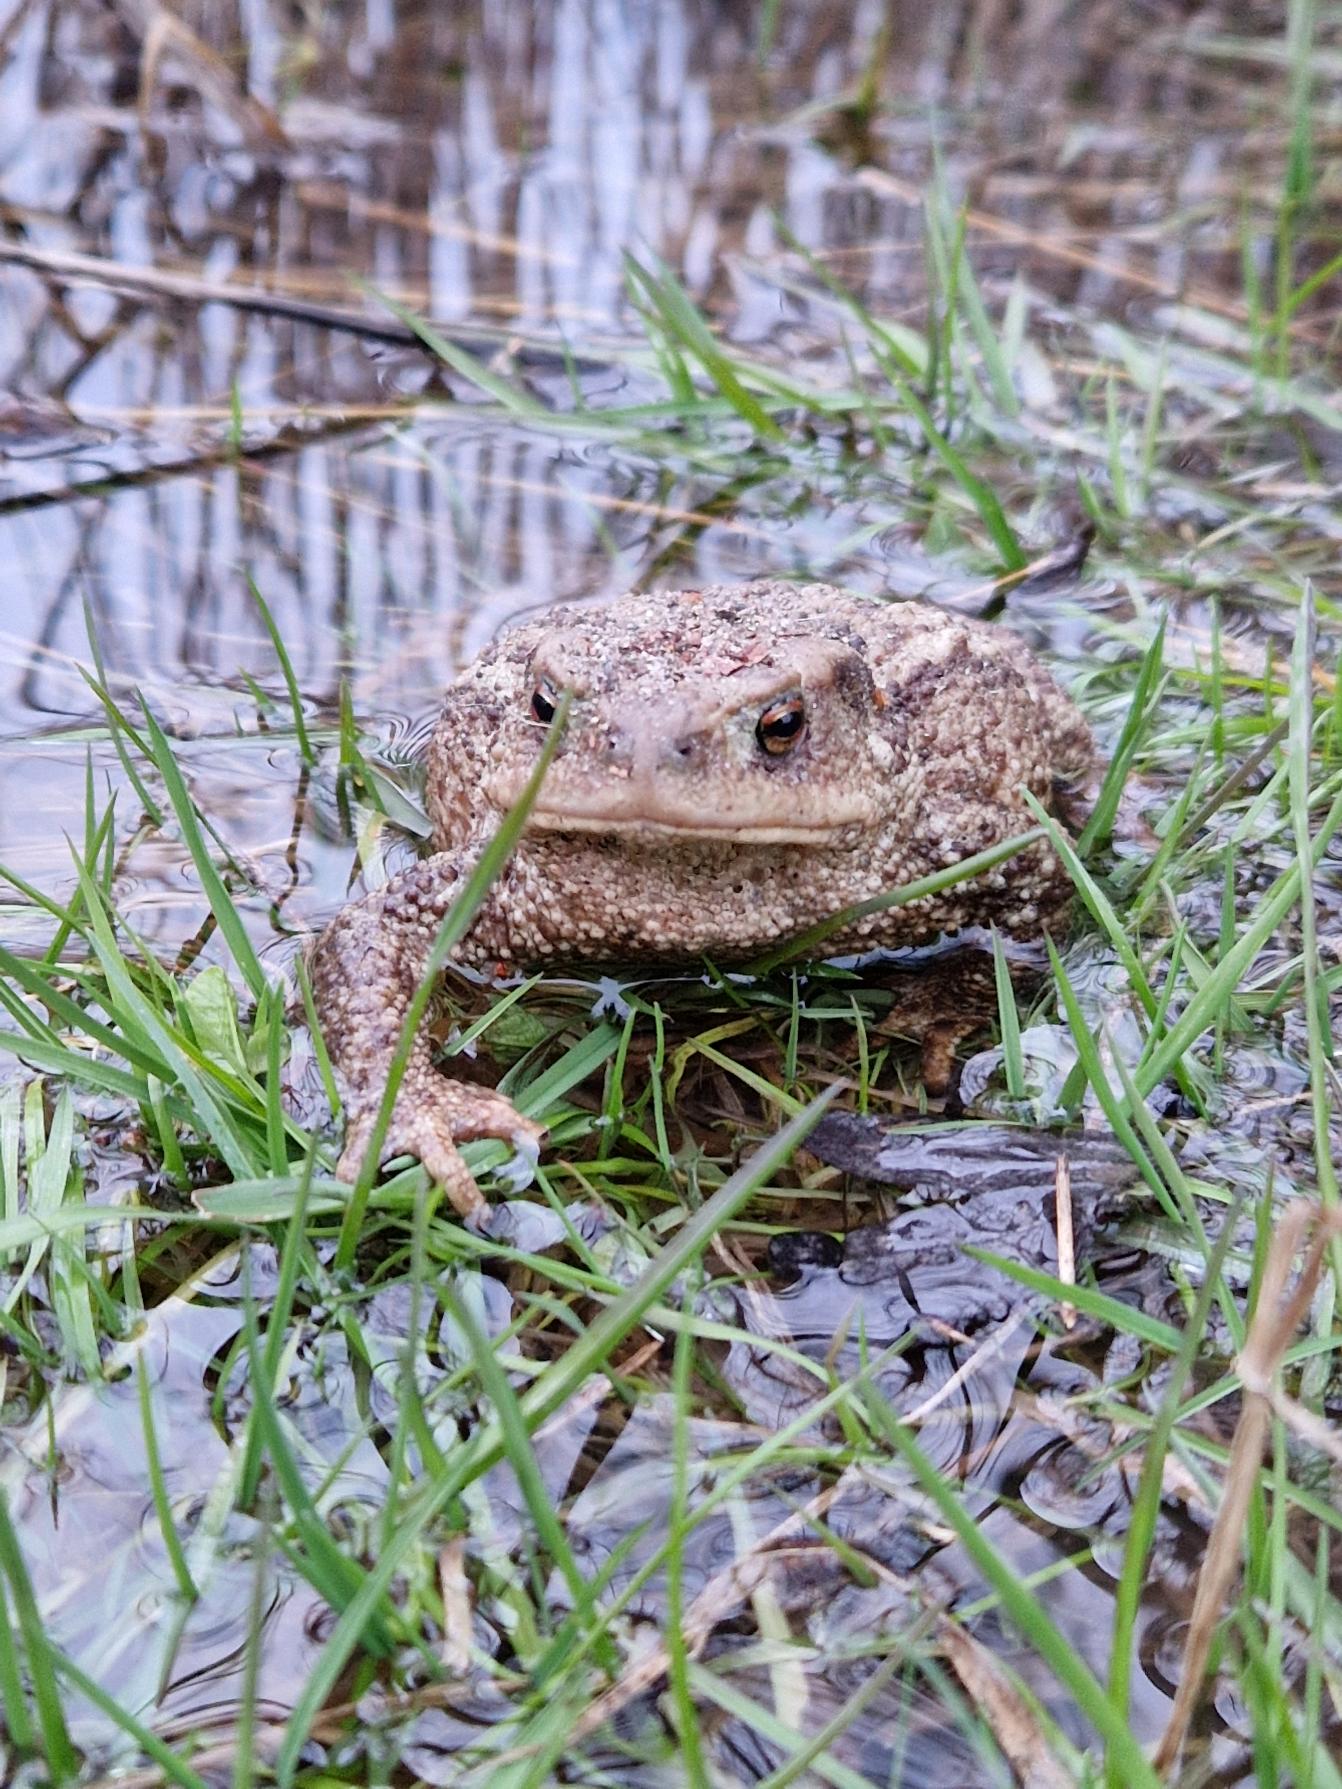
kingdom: Animalia
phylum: Chordata
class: Amphibia
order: Anura
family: Bufonidae
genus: Bufo
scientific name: Bufo bufo
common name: Skrubtudse
